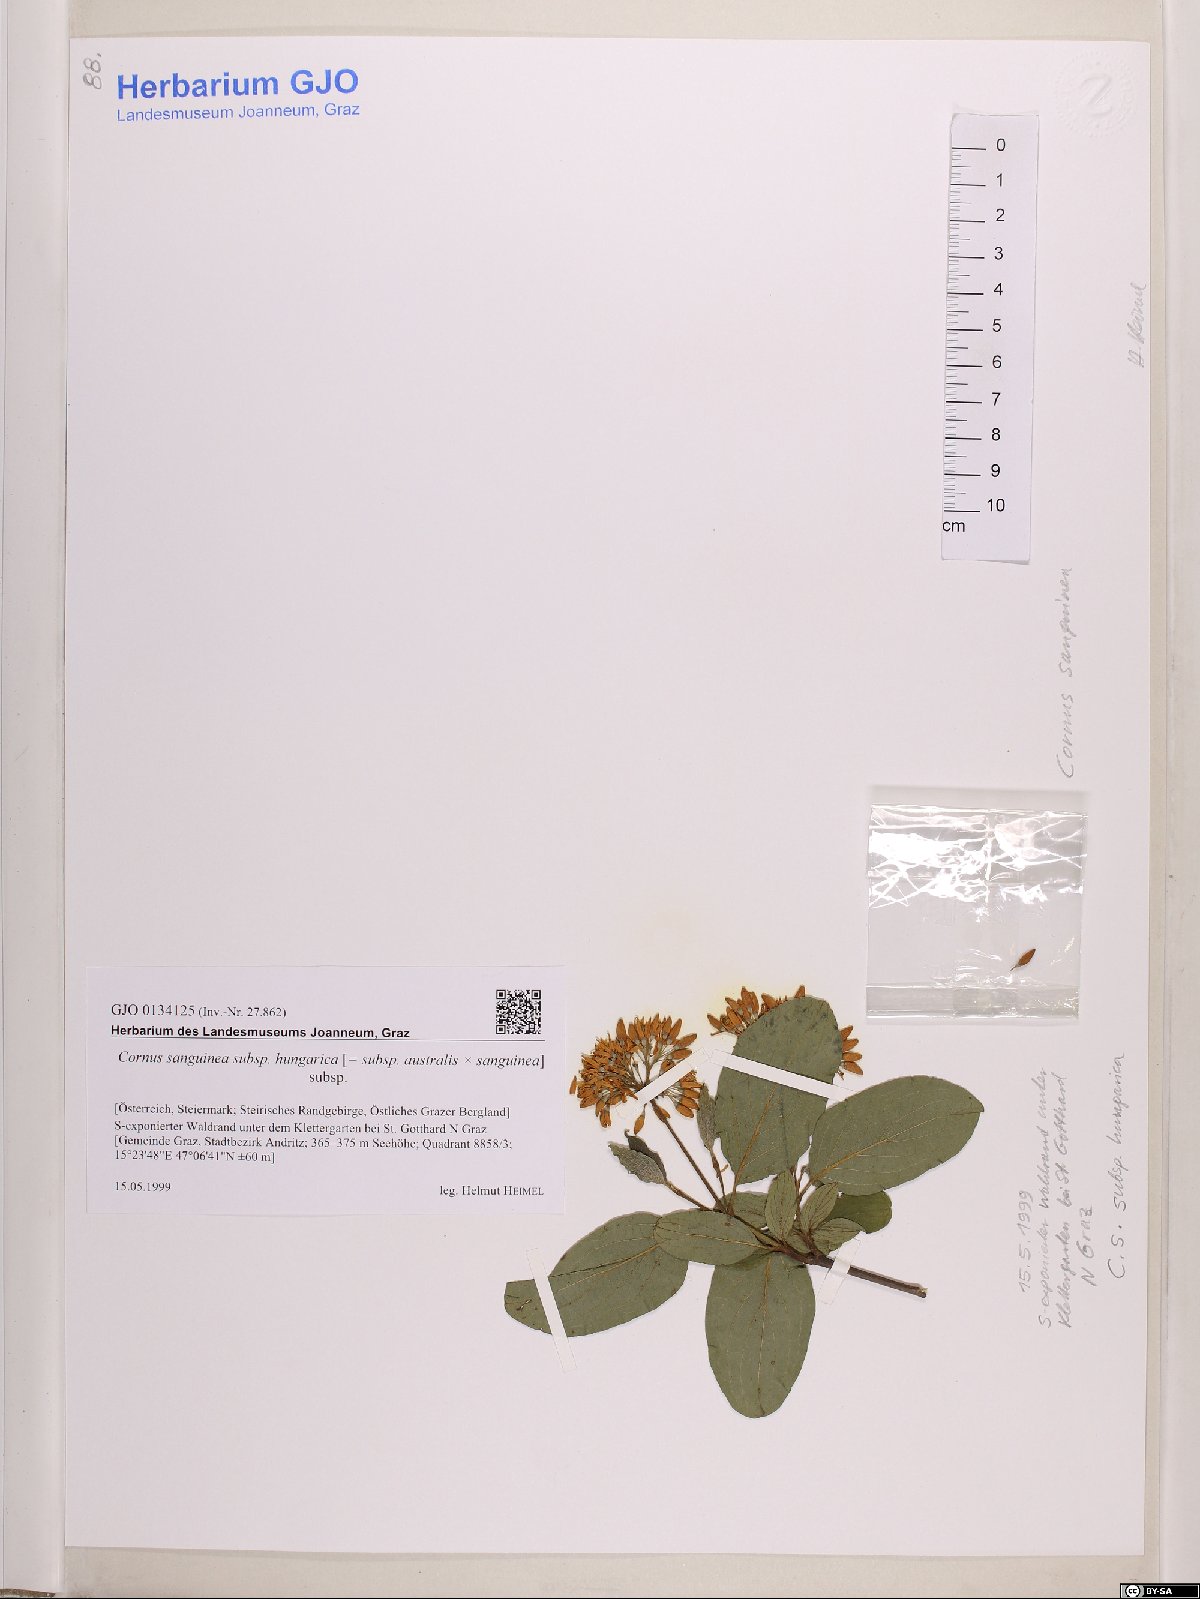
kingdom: Plantae
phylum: Tracheophyta
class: Magnoliopsida
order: Cornales
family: Cornaceae
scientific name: Cornaceae
